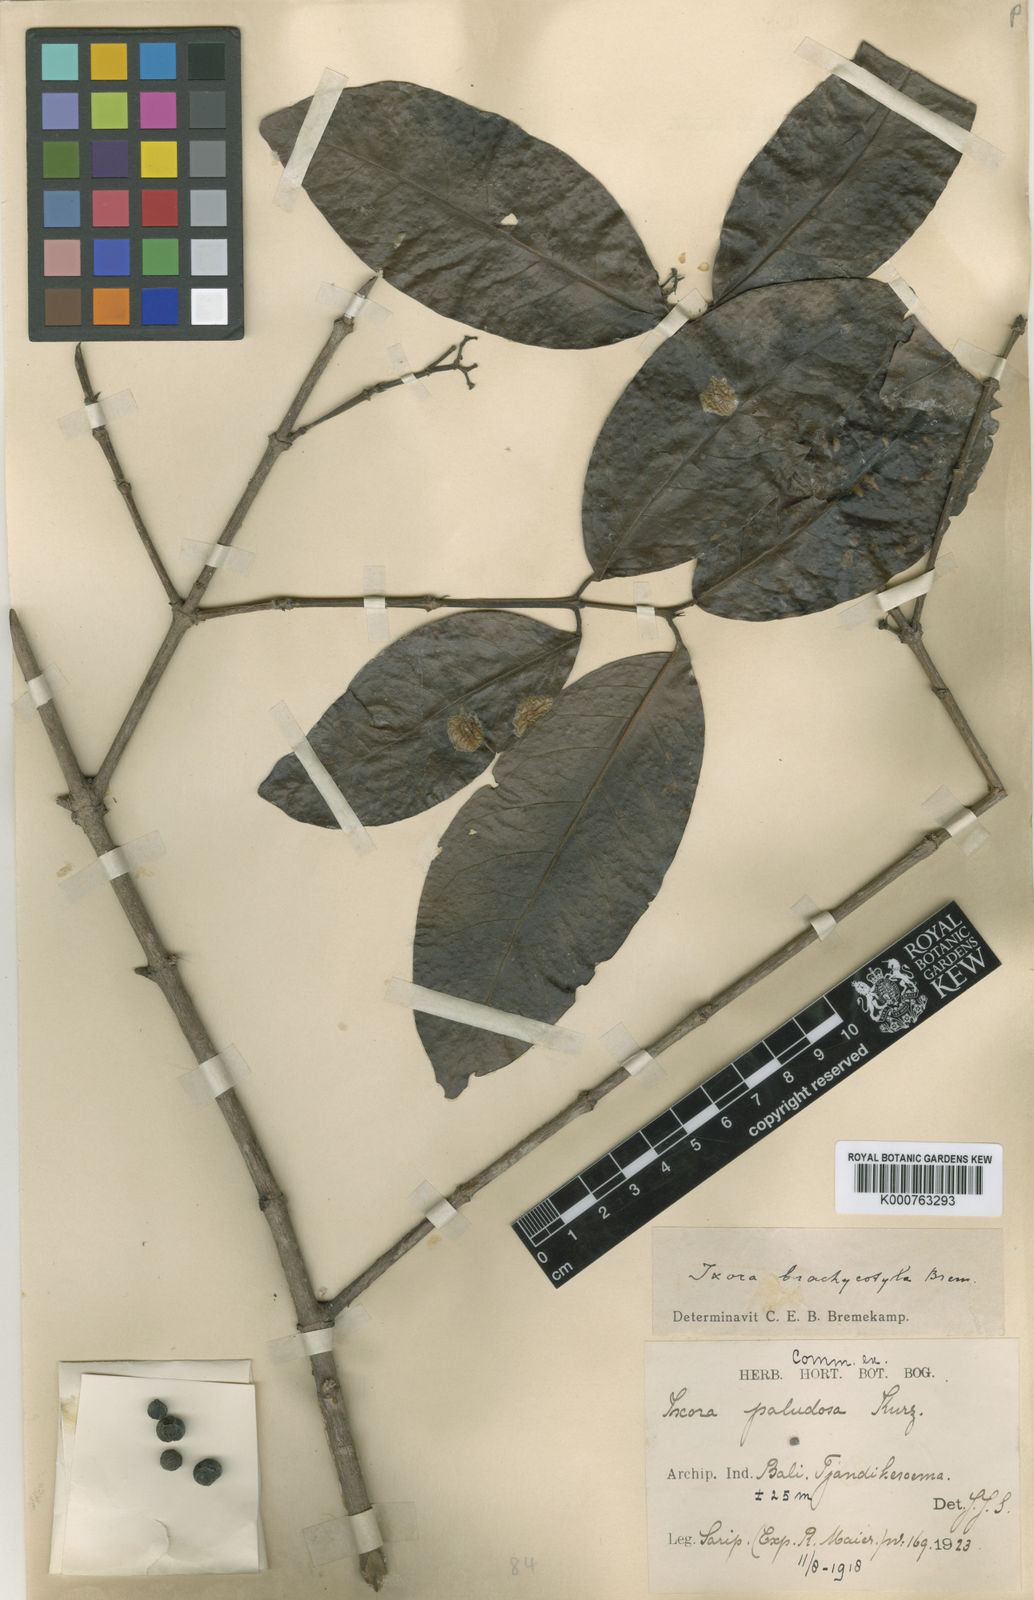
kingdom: Plantae
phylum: Tracheophyta
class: Magnoliopsida
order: Gentianales
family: Rubiaceae
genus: Ixora
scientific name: Ixora brachycotyla
